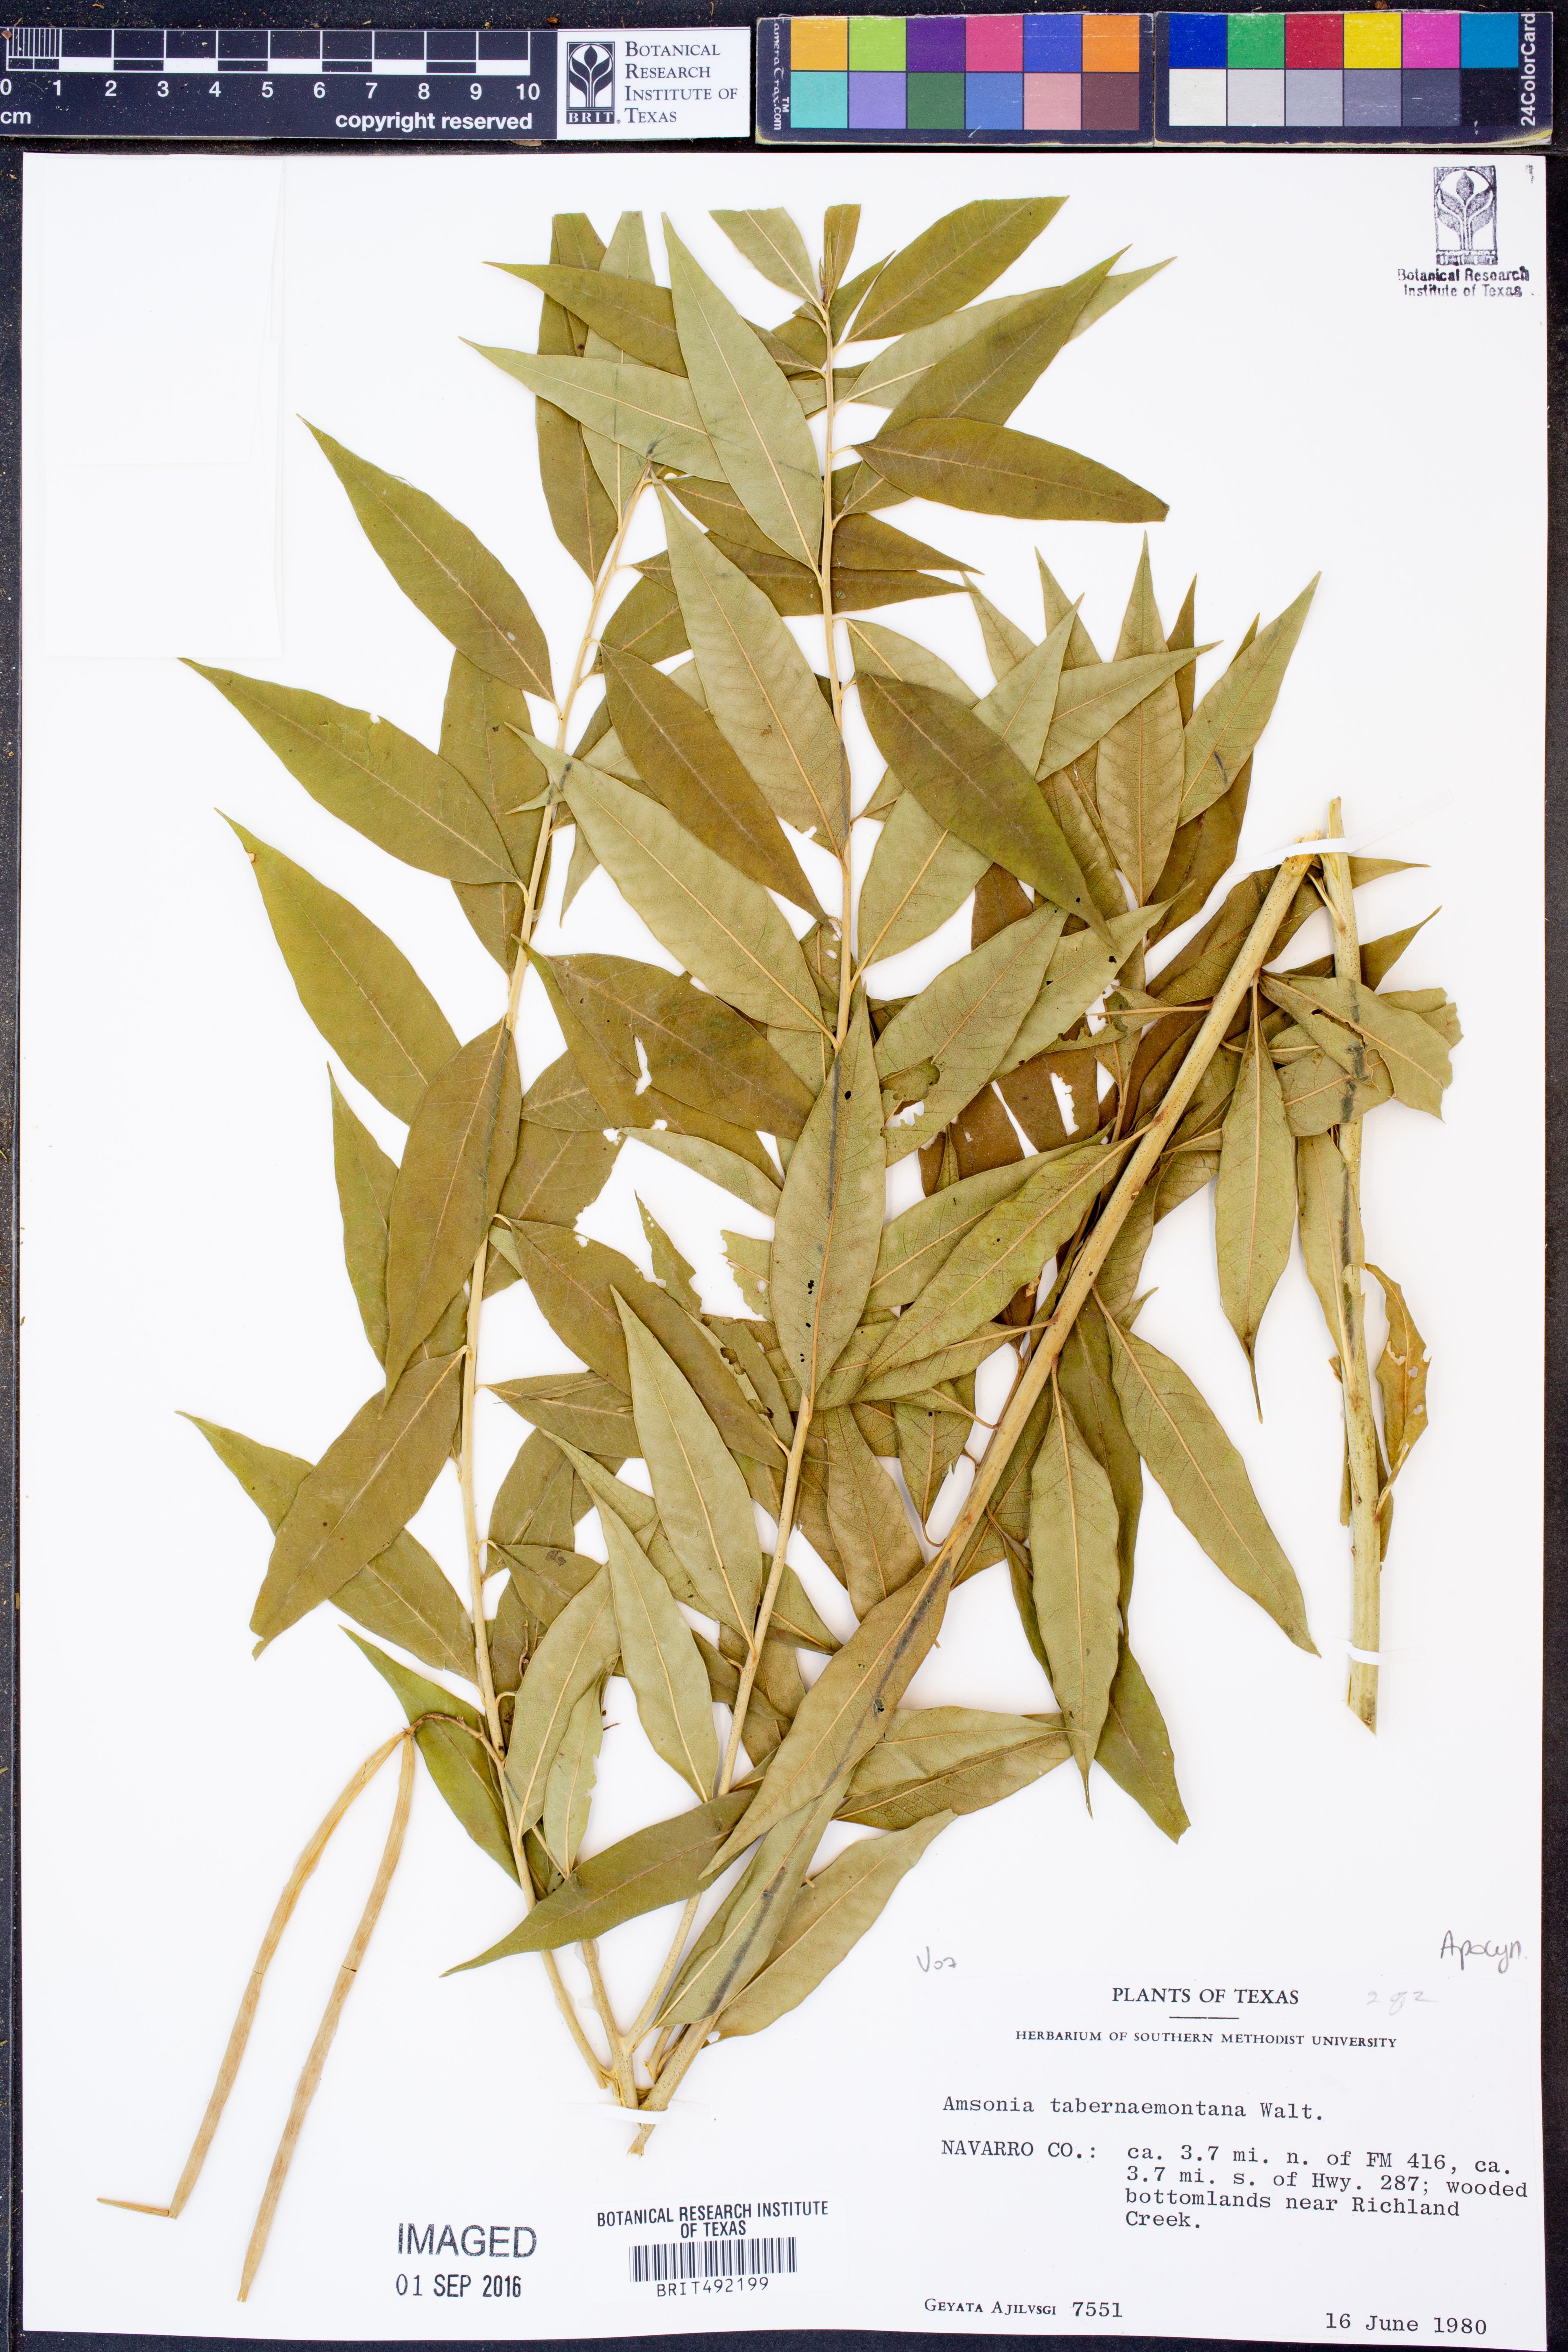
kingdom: Plantae
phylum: Tracheophyta
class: Magnoliopsida
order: Gentianales
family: Apocynaceae
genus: Amsonia
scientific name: Amsonia tabernaemontana
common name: Texas-star
